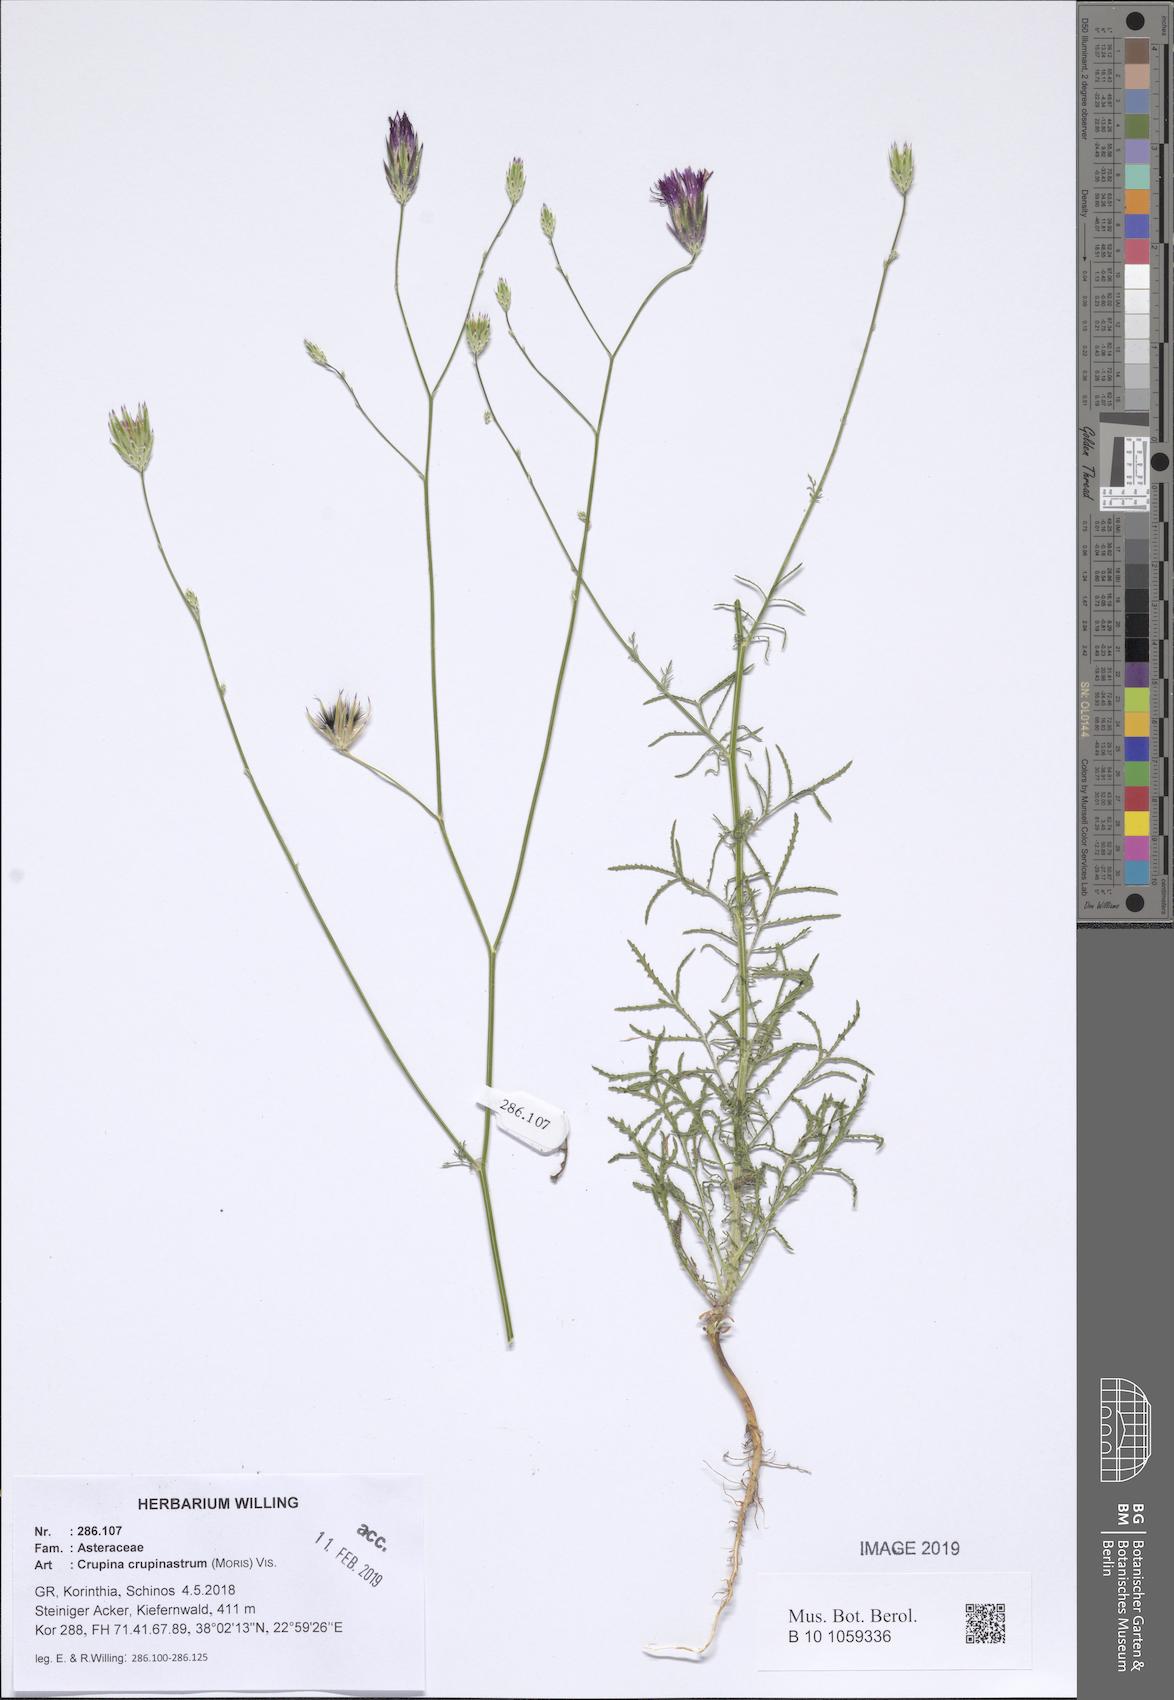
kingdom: Plantae
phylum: Tracheophyta
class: Magnoliopsida
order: Asterales
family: Asteraceae
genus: Crupina
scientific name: Crupina crupinastrum
